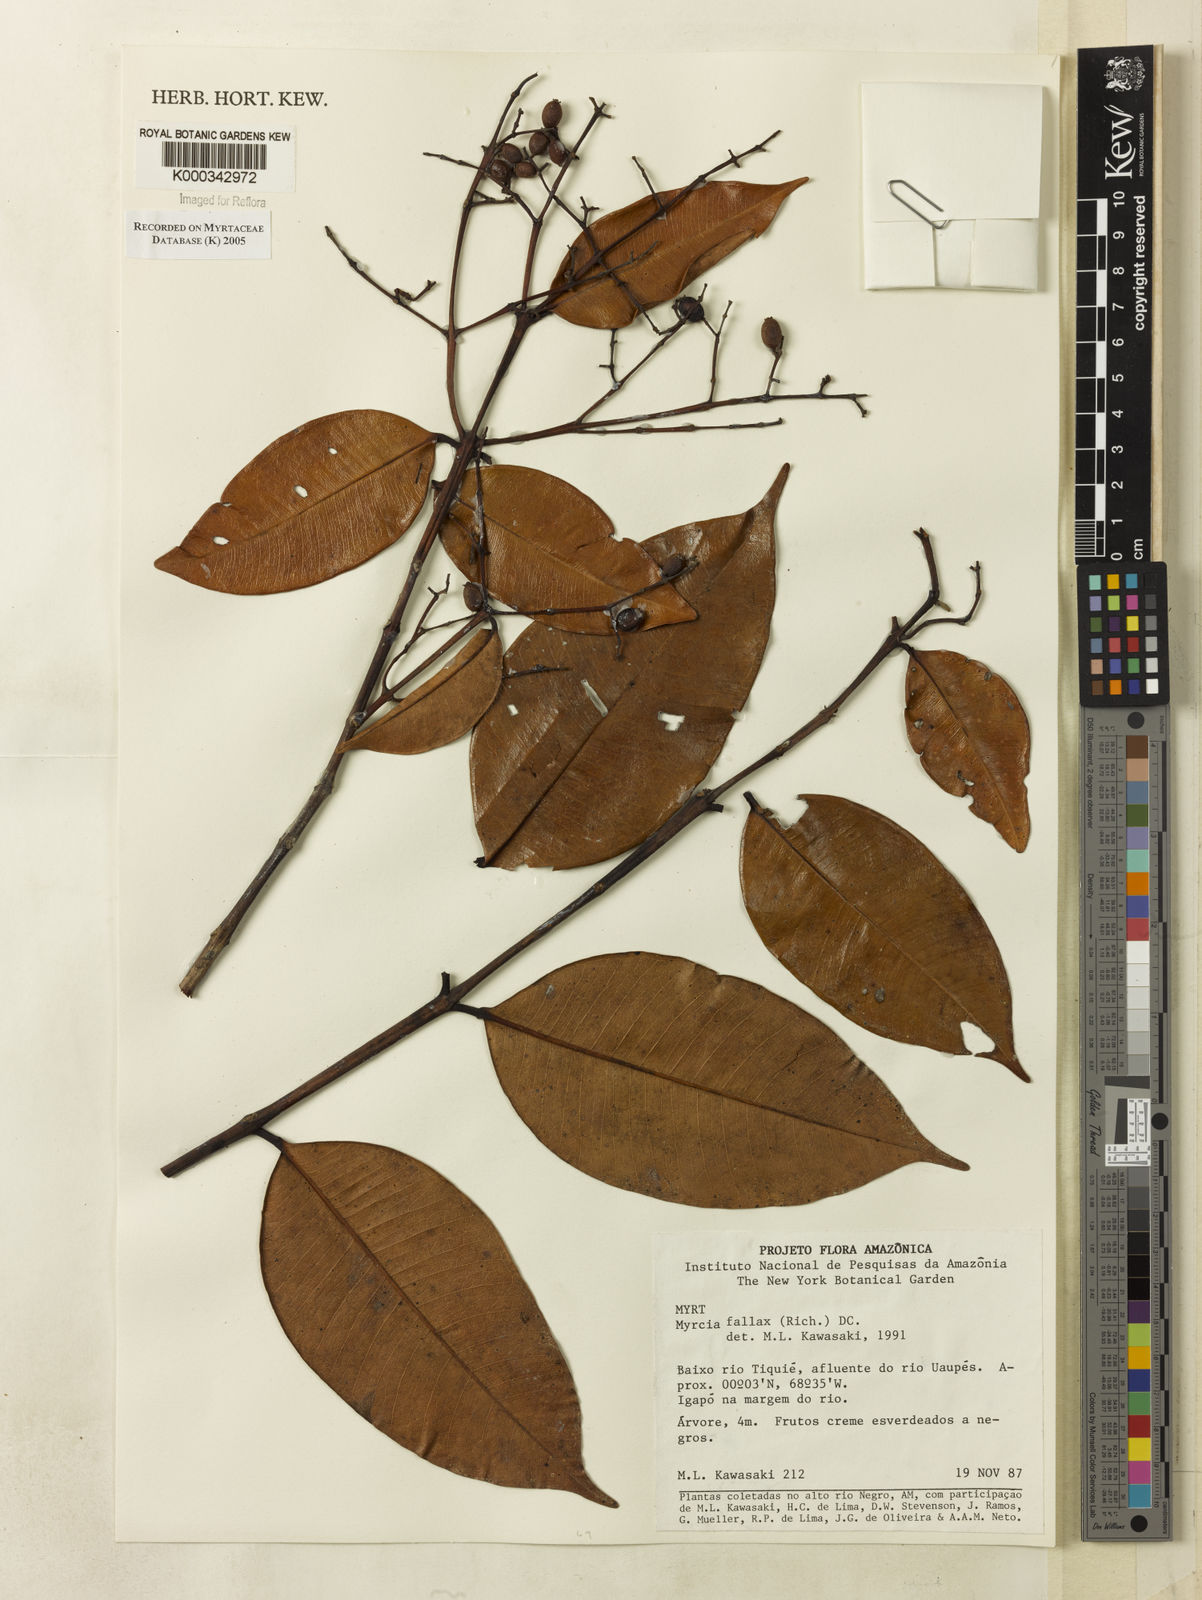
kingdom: Plantae
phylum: Tracheophyta
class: Magnoliopsida
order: Myrtales
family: Myrtaceae
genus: Myrcia
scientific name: Myrcia splendens
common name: Surinam cherry
